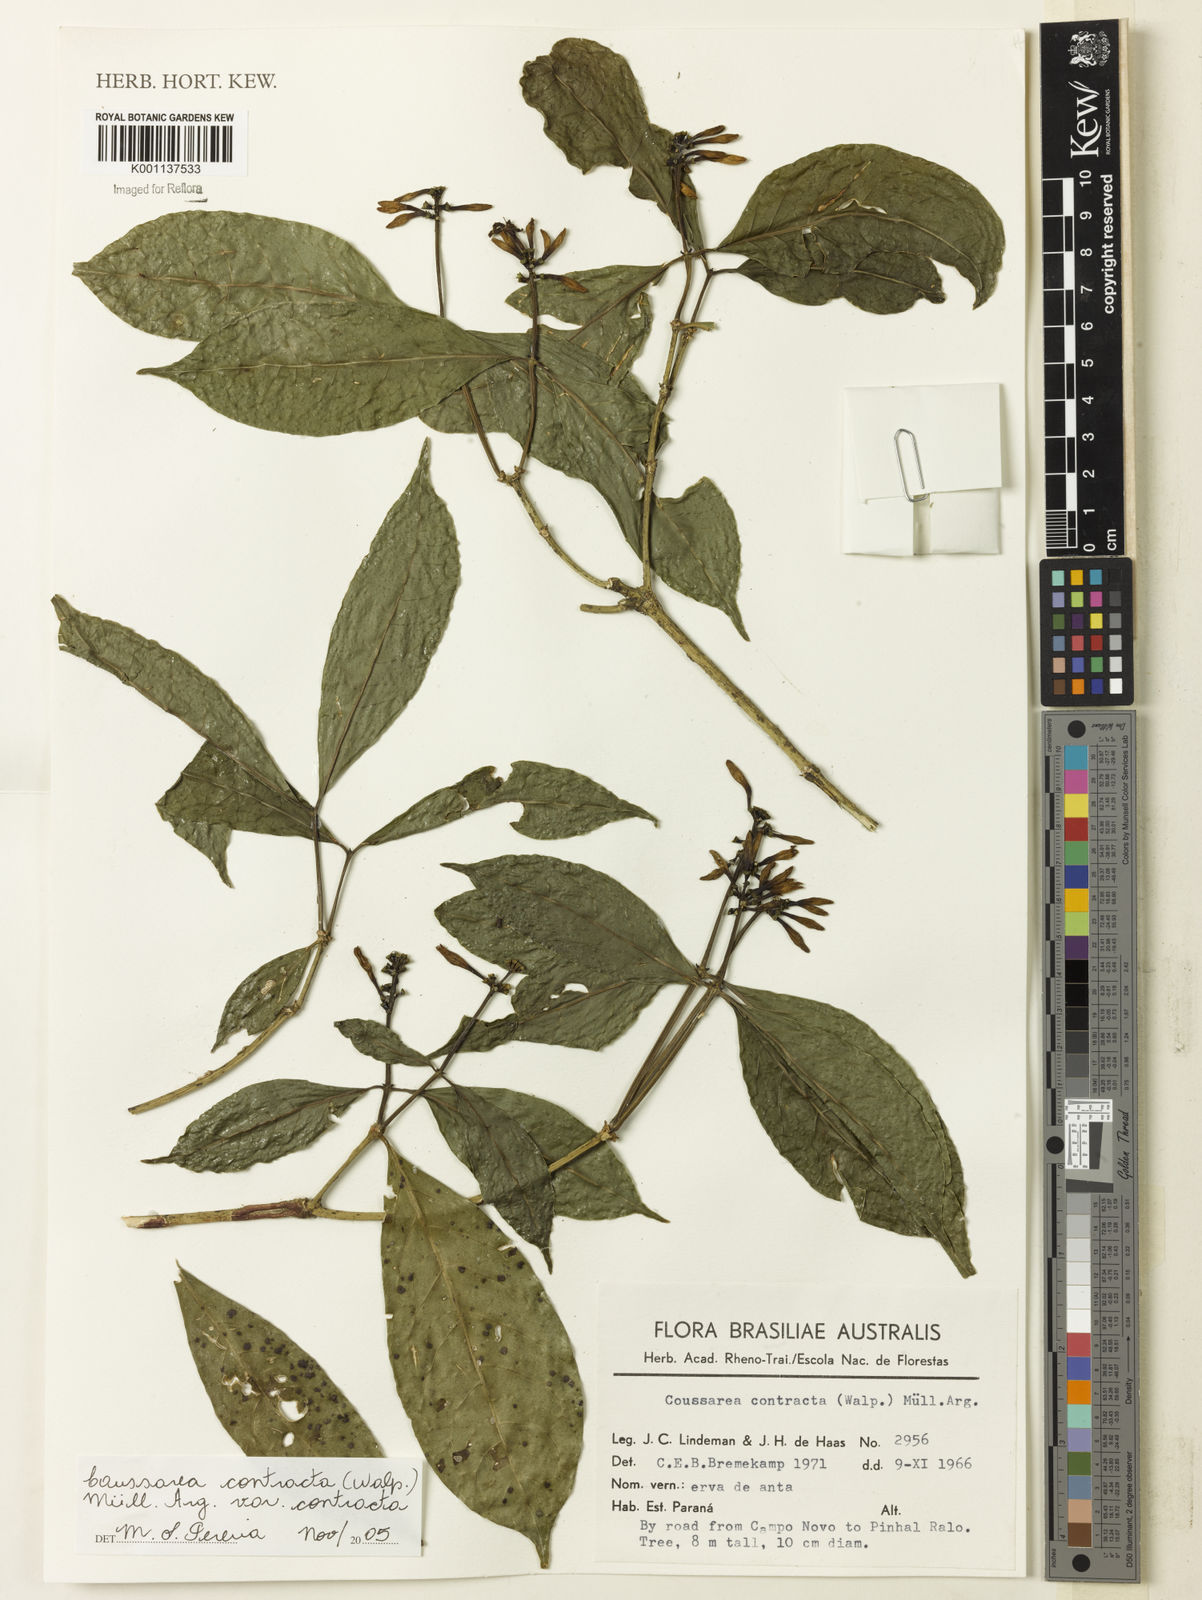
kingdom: Plantae
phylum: Tracheophyta
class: Magnoliopsida
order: Gentianales
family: Rubiaceae
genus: Coussarea
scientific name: Coussarea
